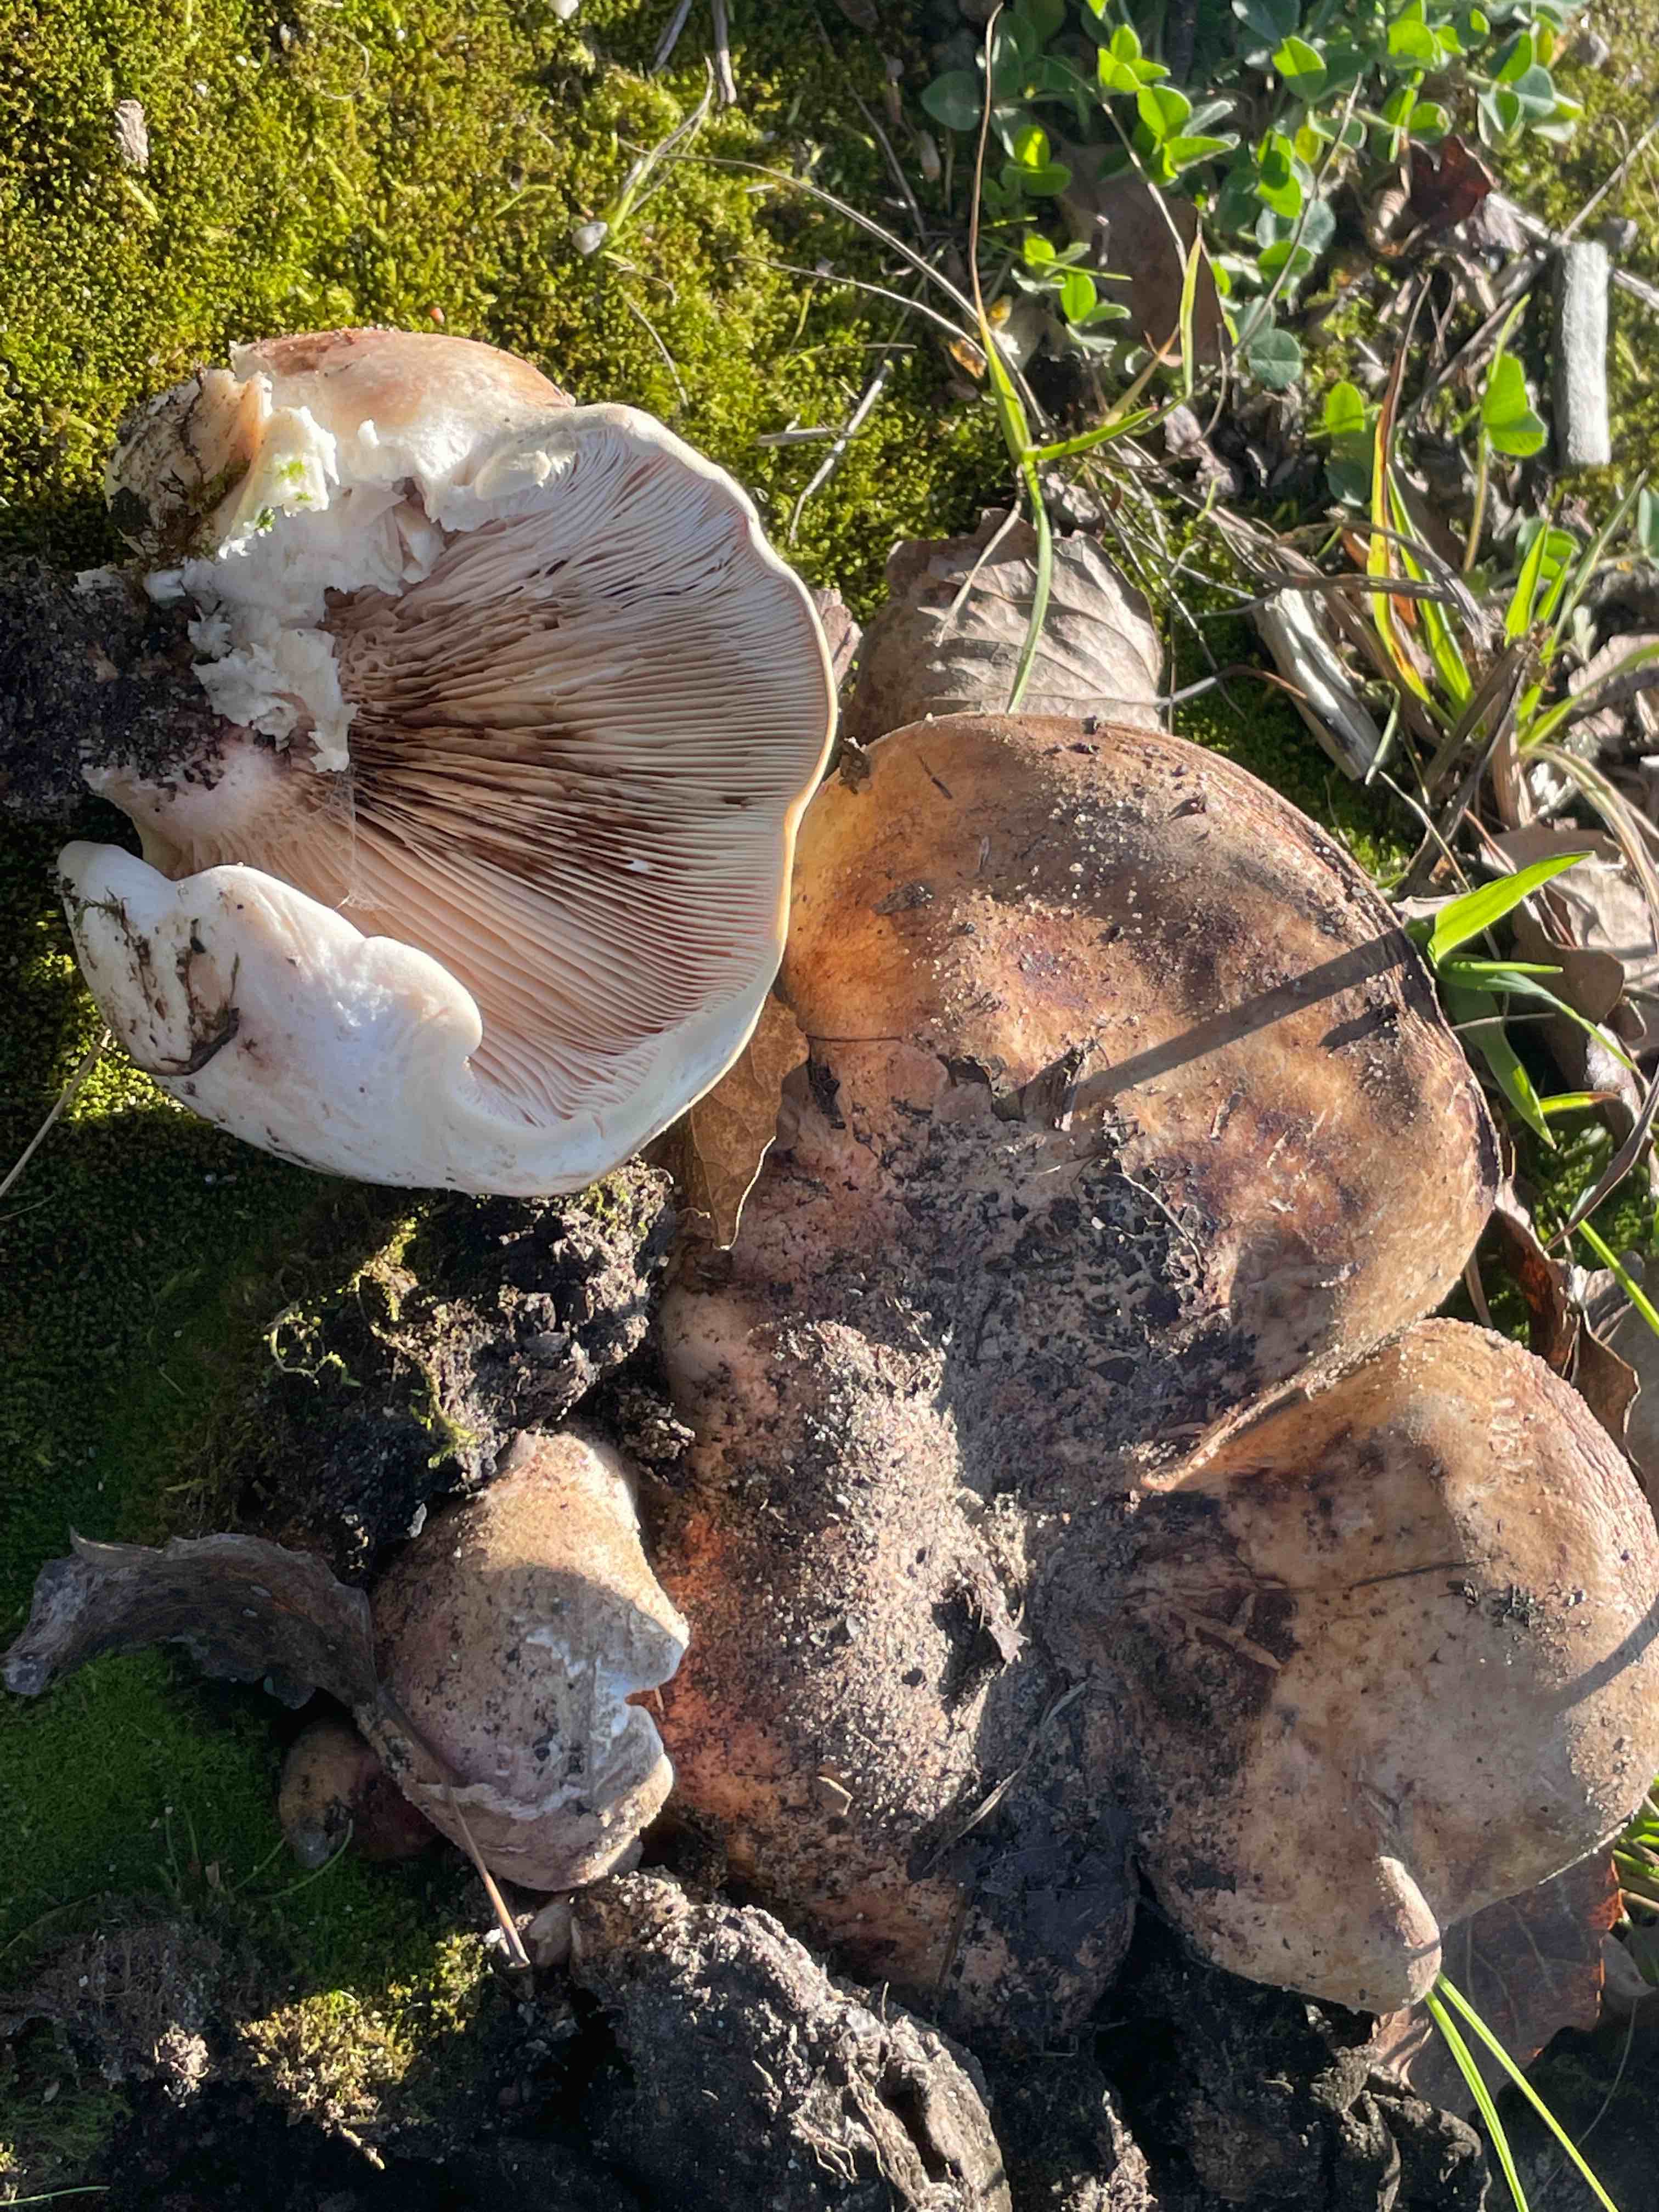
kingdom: Fungi
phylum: Basidiomycota
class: Agaricomycetes
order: Agaricales
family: Tricholomataceae
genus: Aspropaxillus
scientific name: Aspropaxillus giganteus
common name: kæmpe-tragtridderhat
